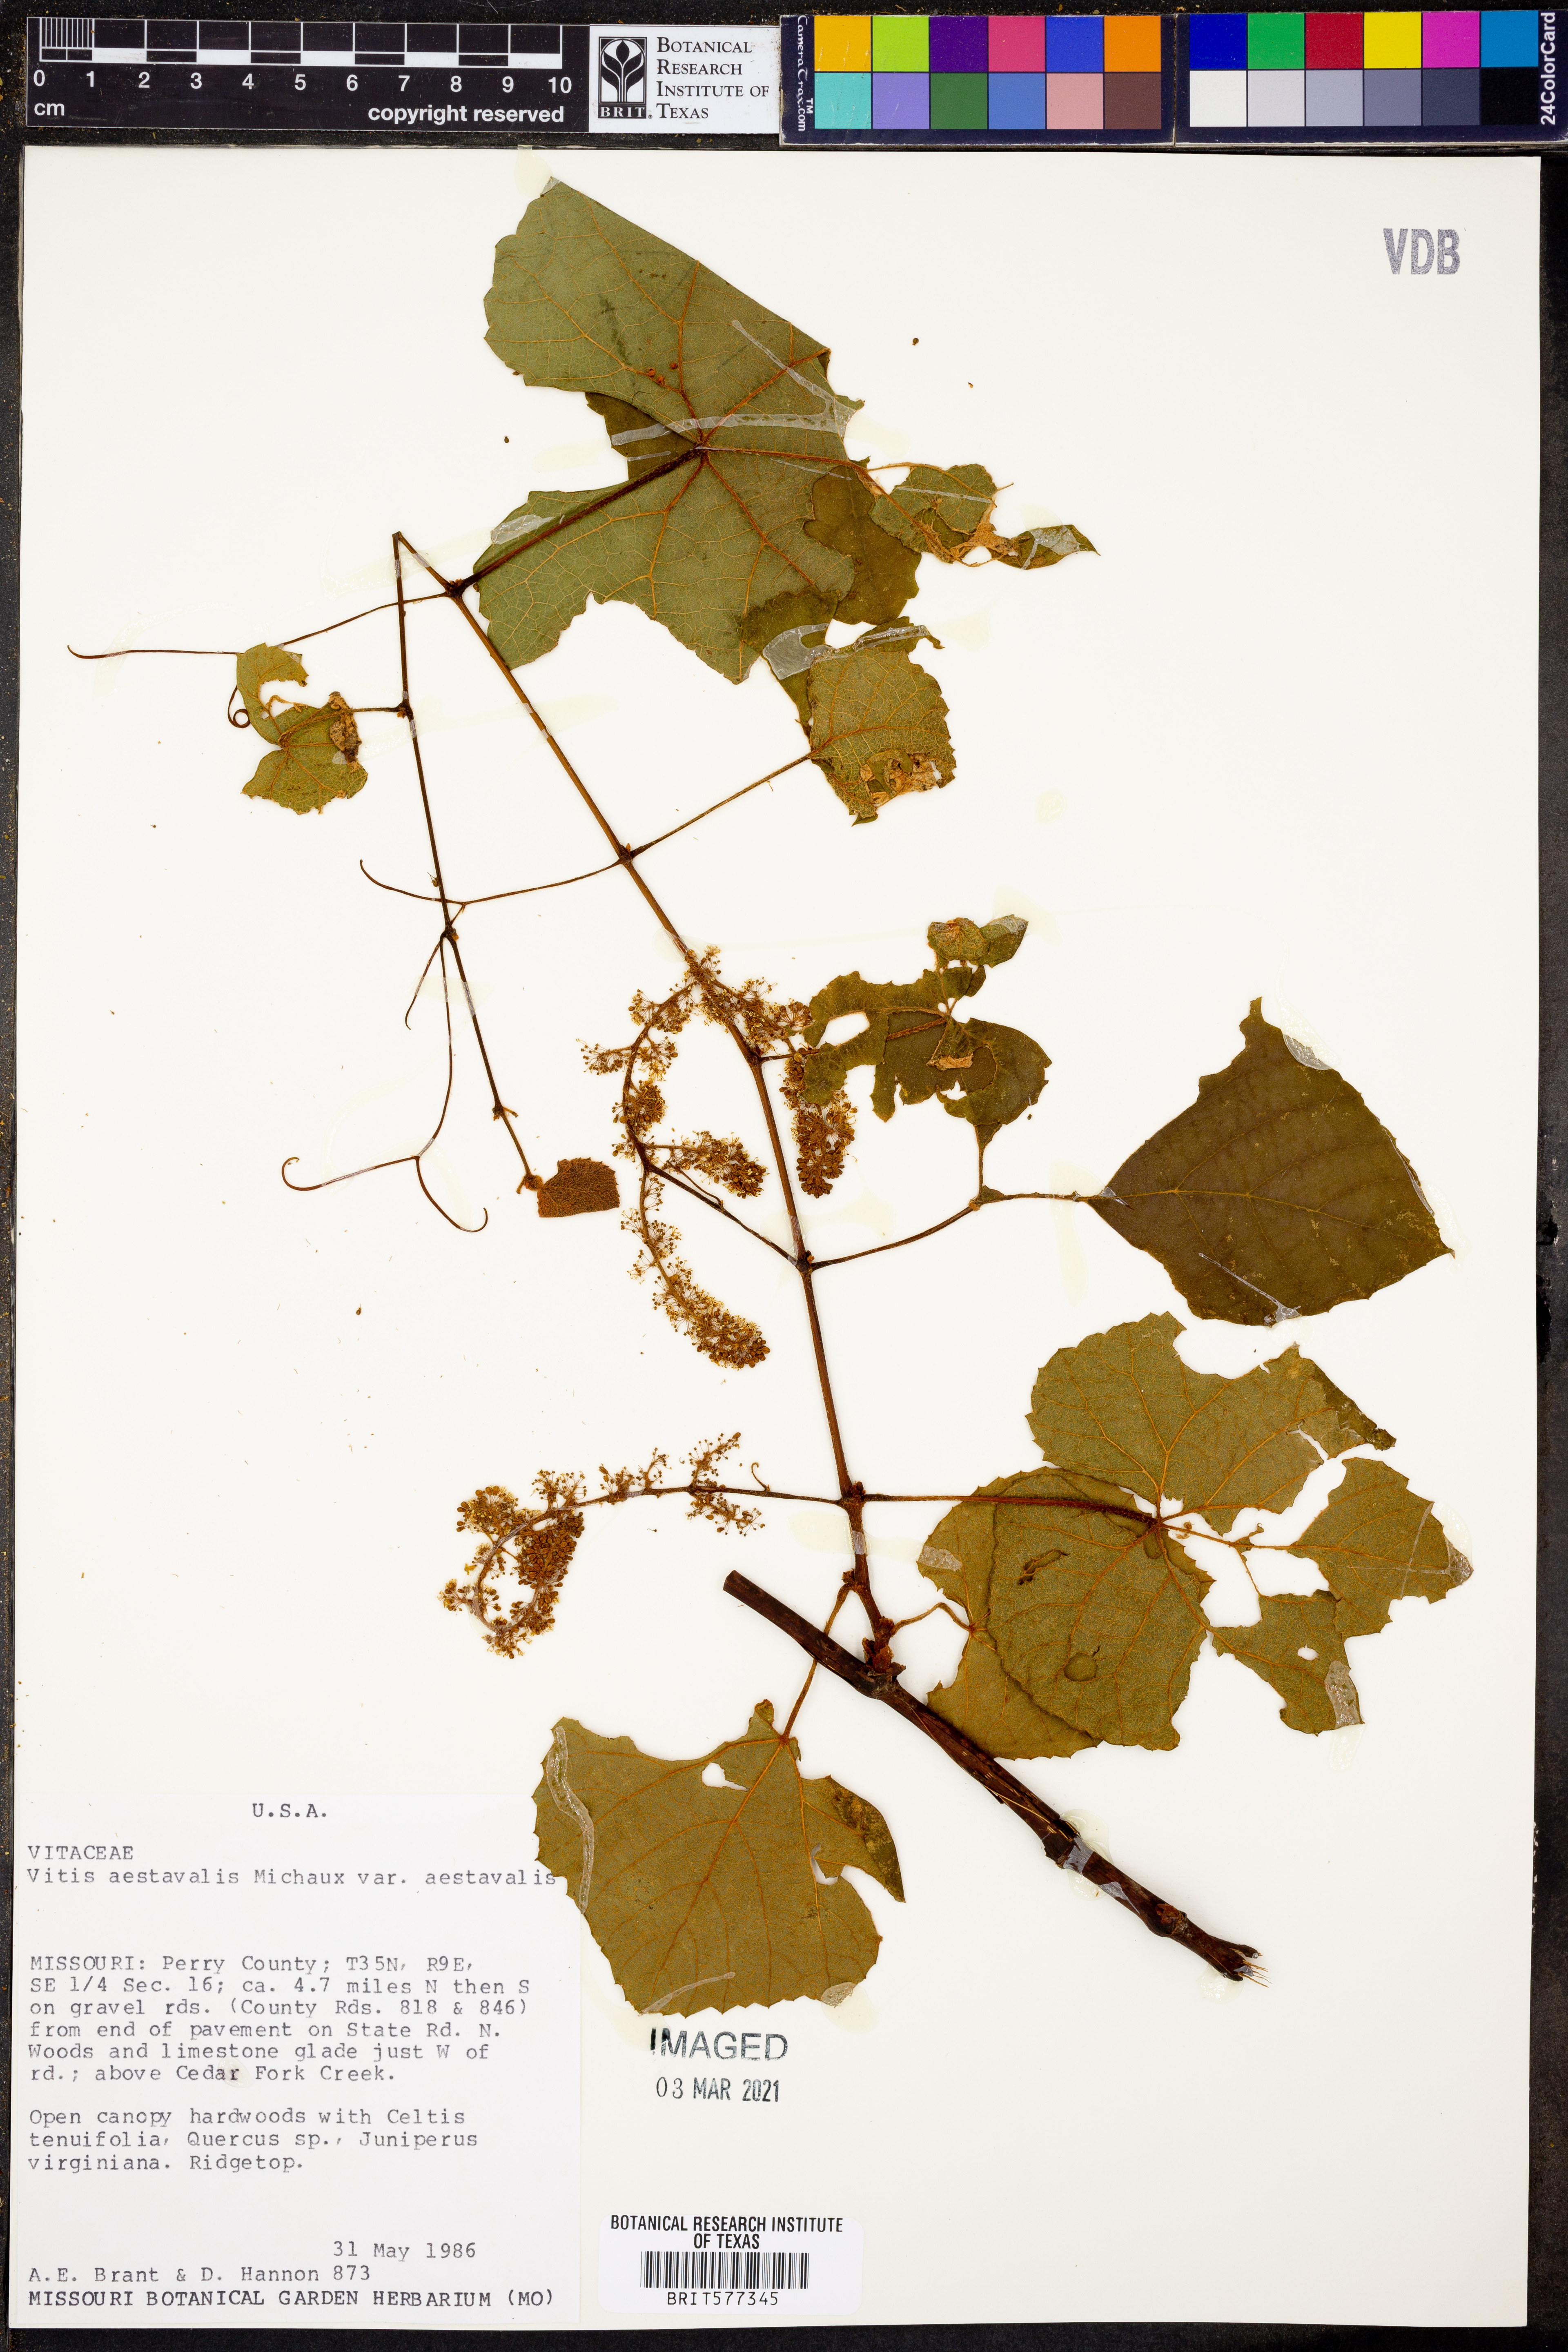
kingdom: Plantae
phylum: Tracheophyta
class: Magnoliopsida
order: Vitales
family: Vitaceae
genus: Vitis
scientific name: Vitis aestivalis
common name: Pigeon grape
